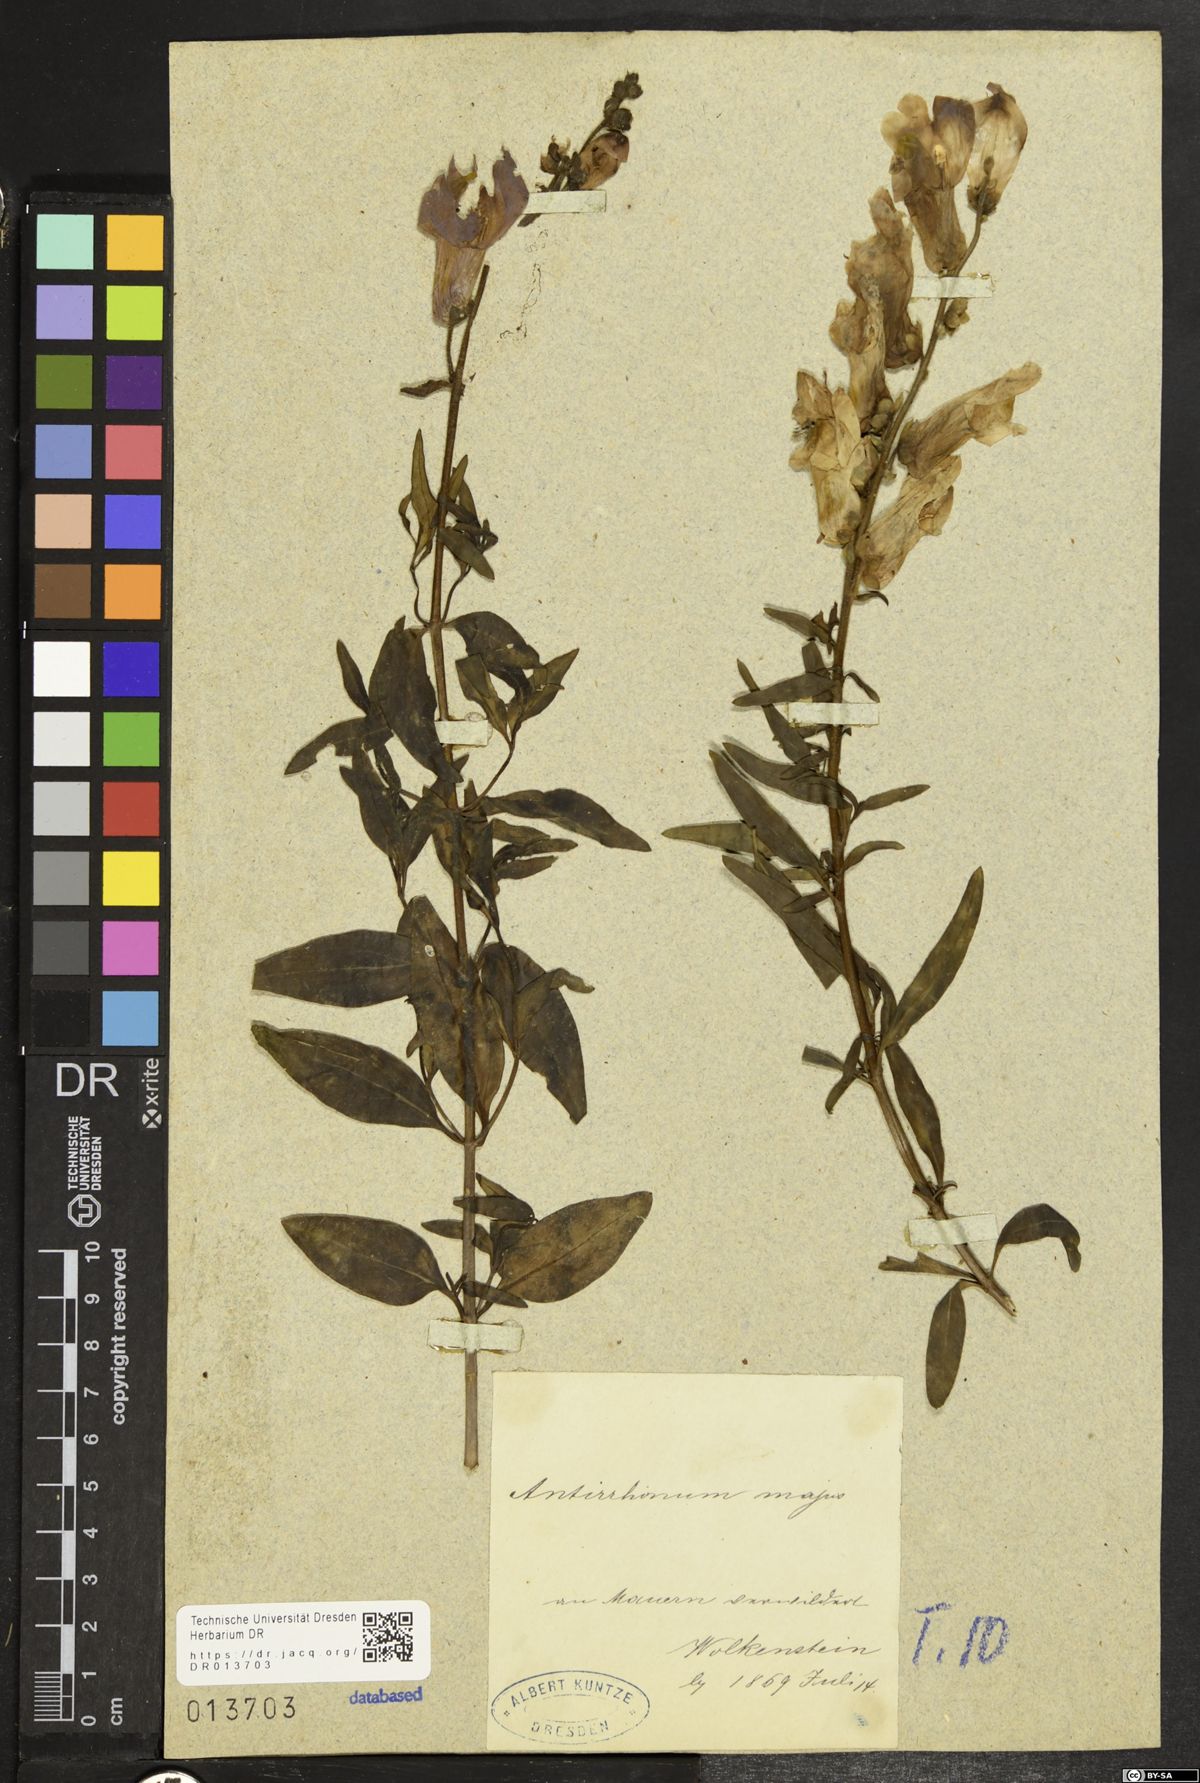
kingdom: Plantae
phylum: Tracheophyta
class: Magnoliopsida
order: Lamiales
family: Plantaginaceae
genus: Antirrhinum
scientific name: Antirrhinum majus
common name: Snapdragon
